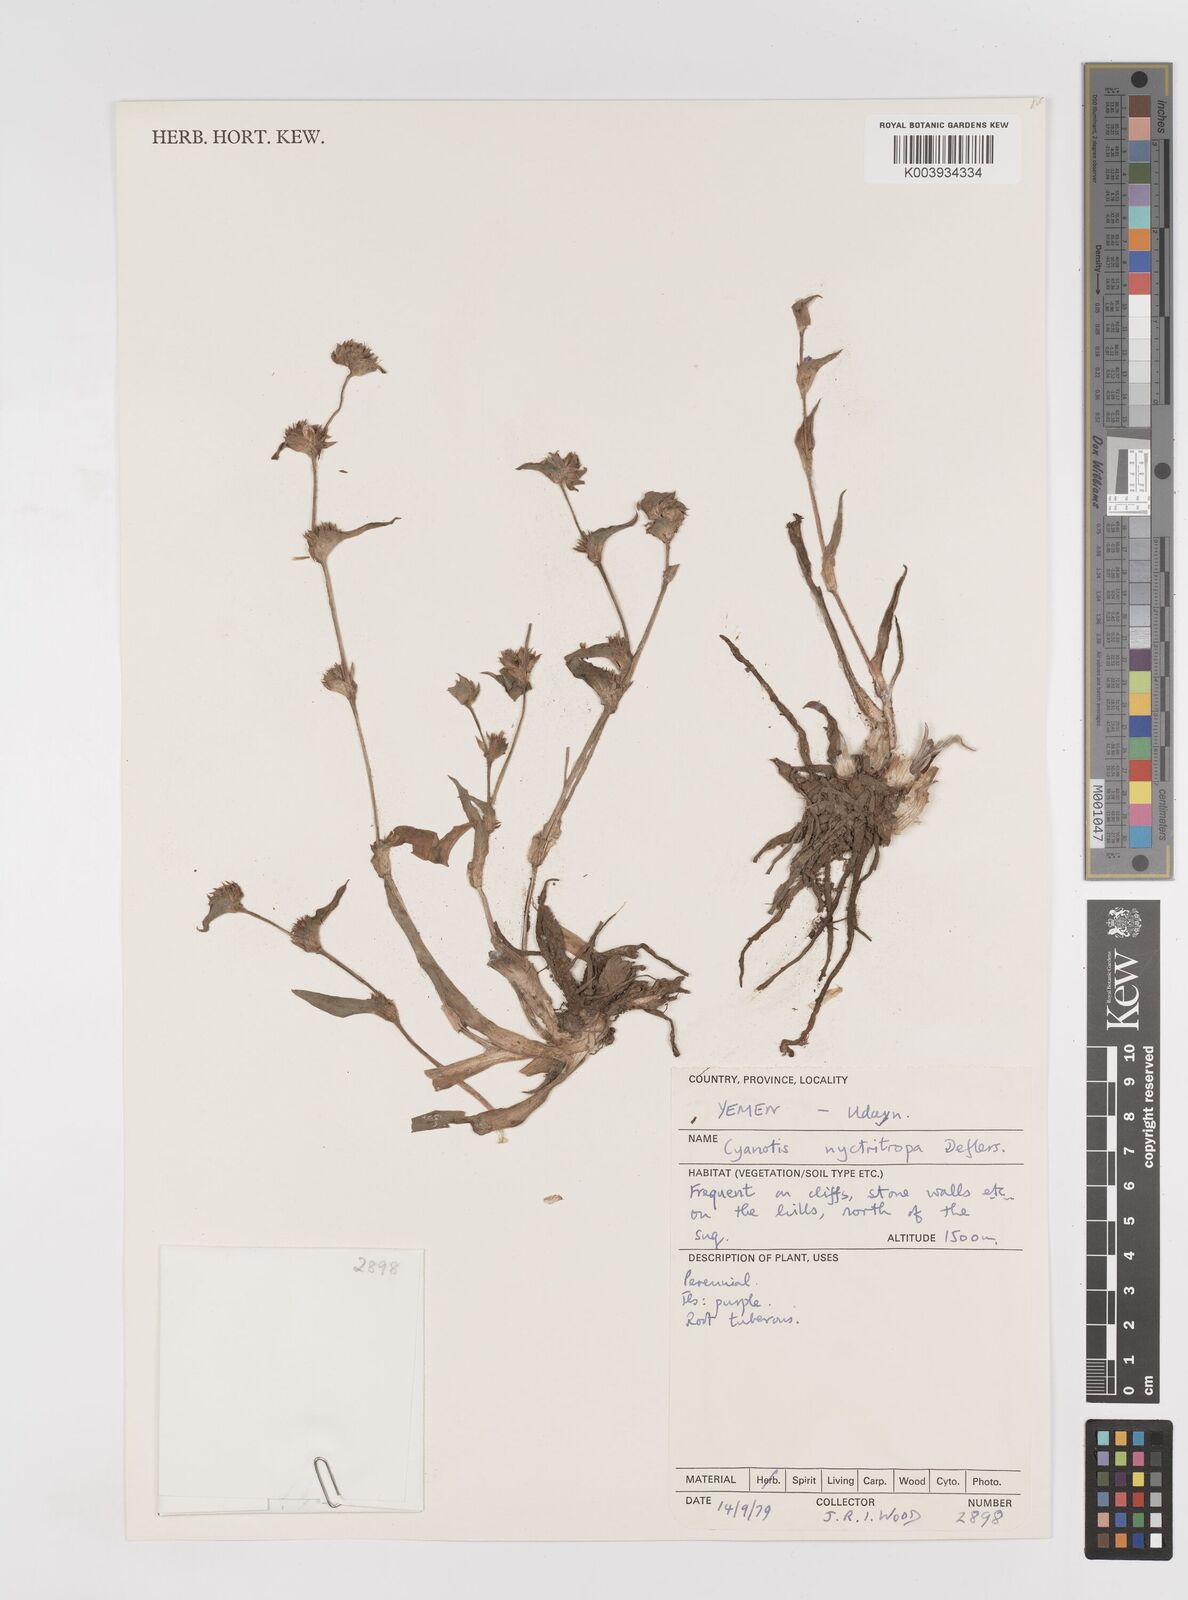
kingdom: Plantae
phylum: Tracheophyta
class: Liliopsida
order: Commelinales
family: Commelinaceae
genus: Cyanotis
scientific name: Cyanotis nyctitropa
